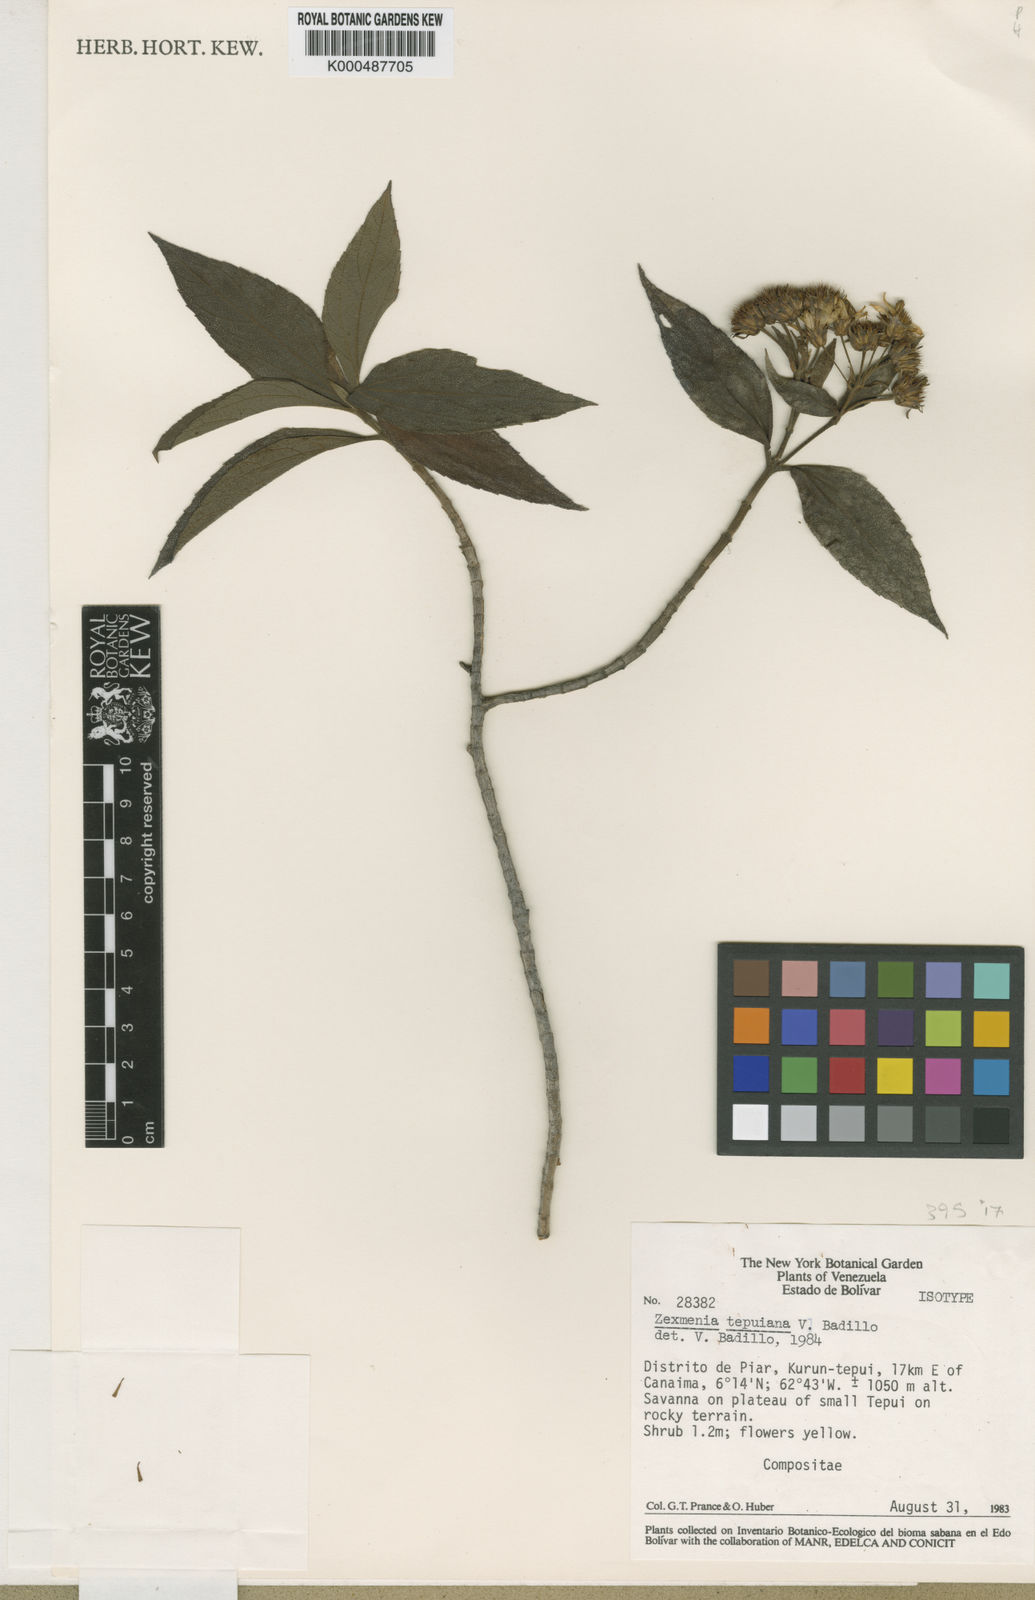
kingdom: Plantae
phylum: Tracheophyta
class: Magnoliopsida
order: Asterales
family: Asteraceae
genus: Oyedaea
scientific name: Oyedaea tepuiana
